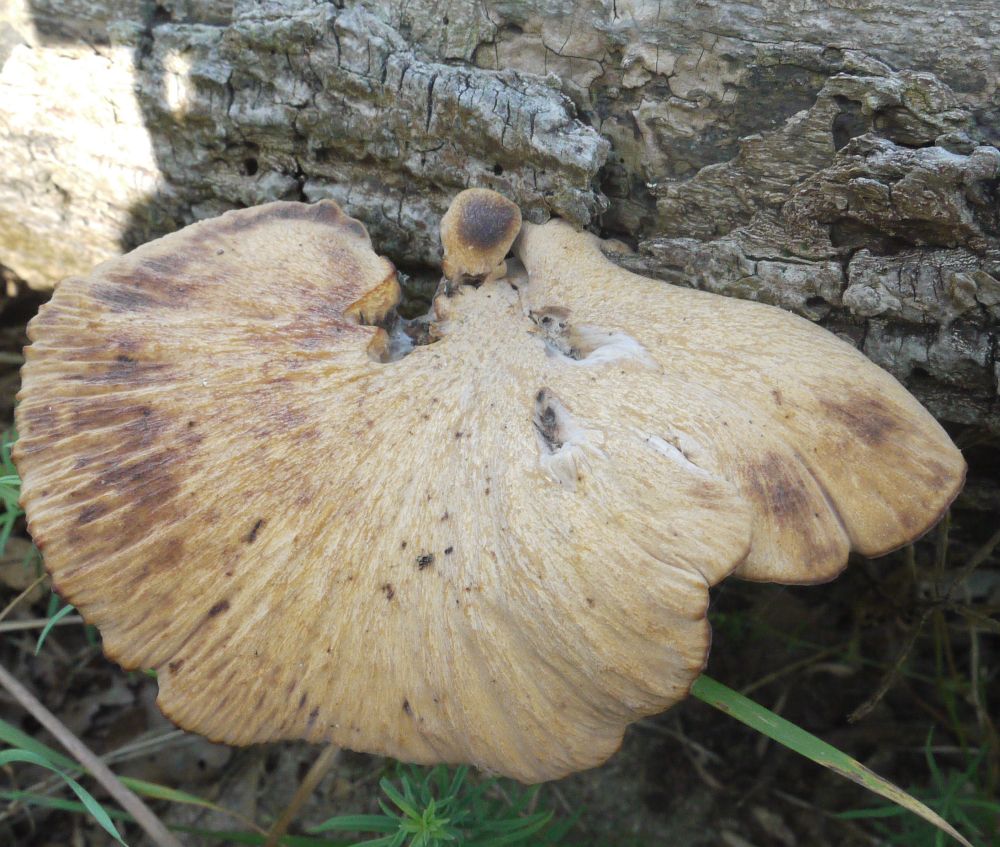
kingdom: Fungi
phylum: Basidiomycota
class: Agaricomycetes
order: Polyporales
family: Polyporaceae
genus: Cerioporus
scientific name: Cerioporus varius
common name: foranderlig stilkporesvamp
